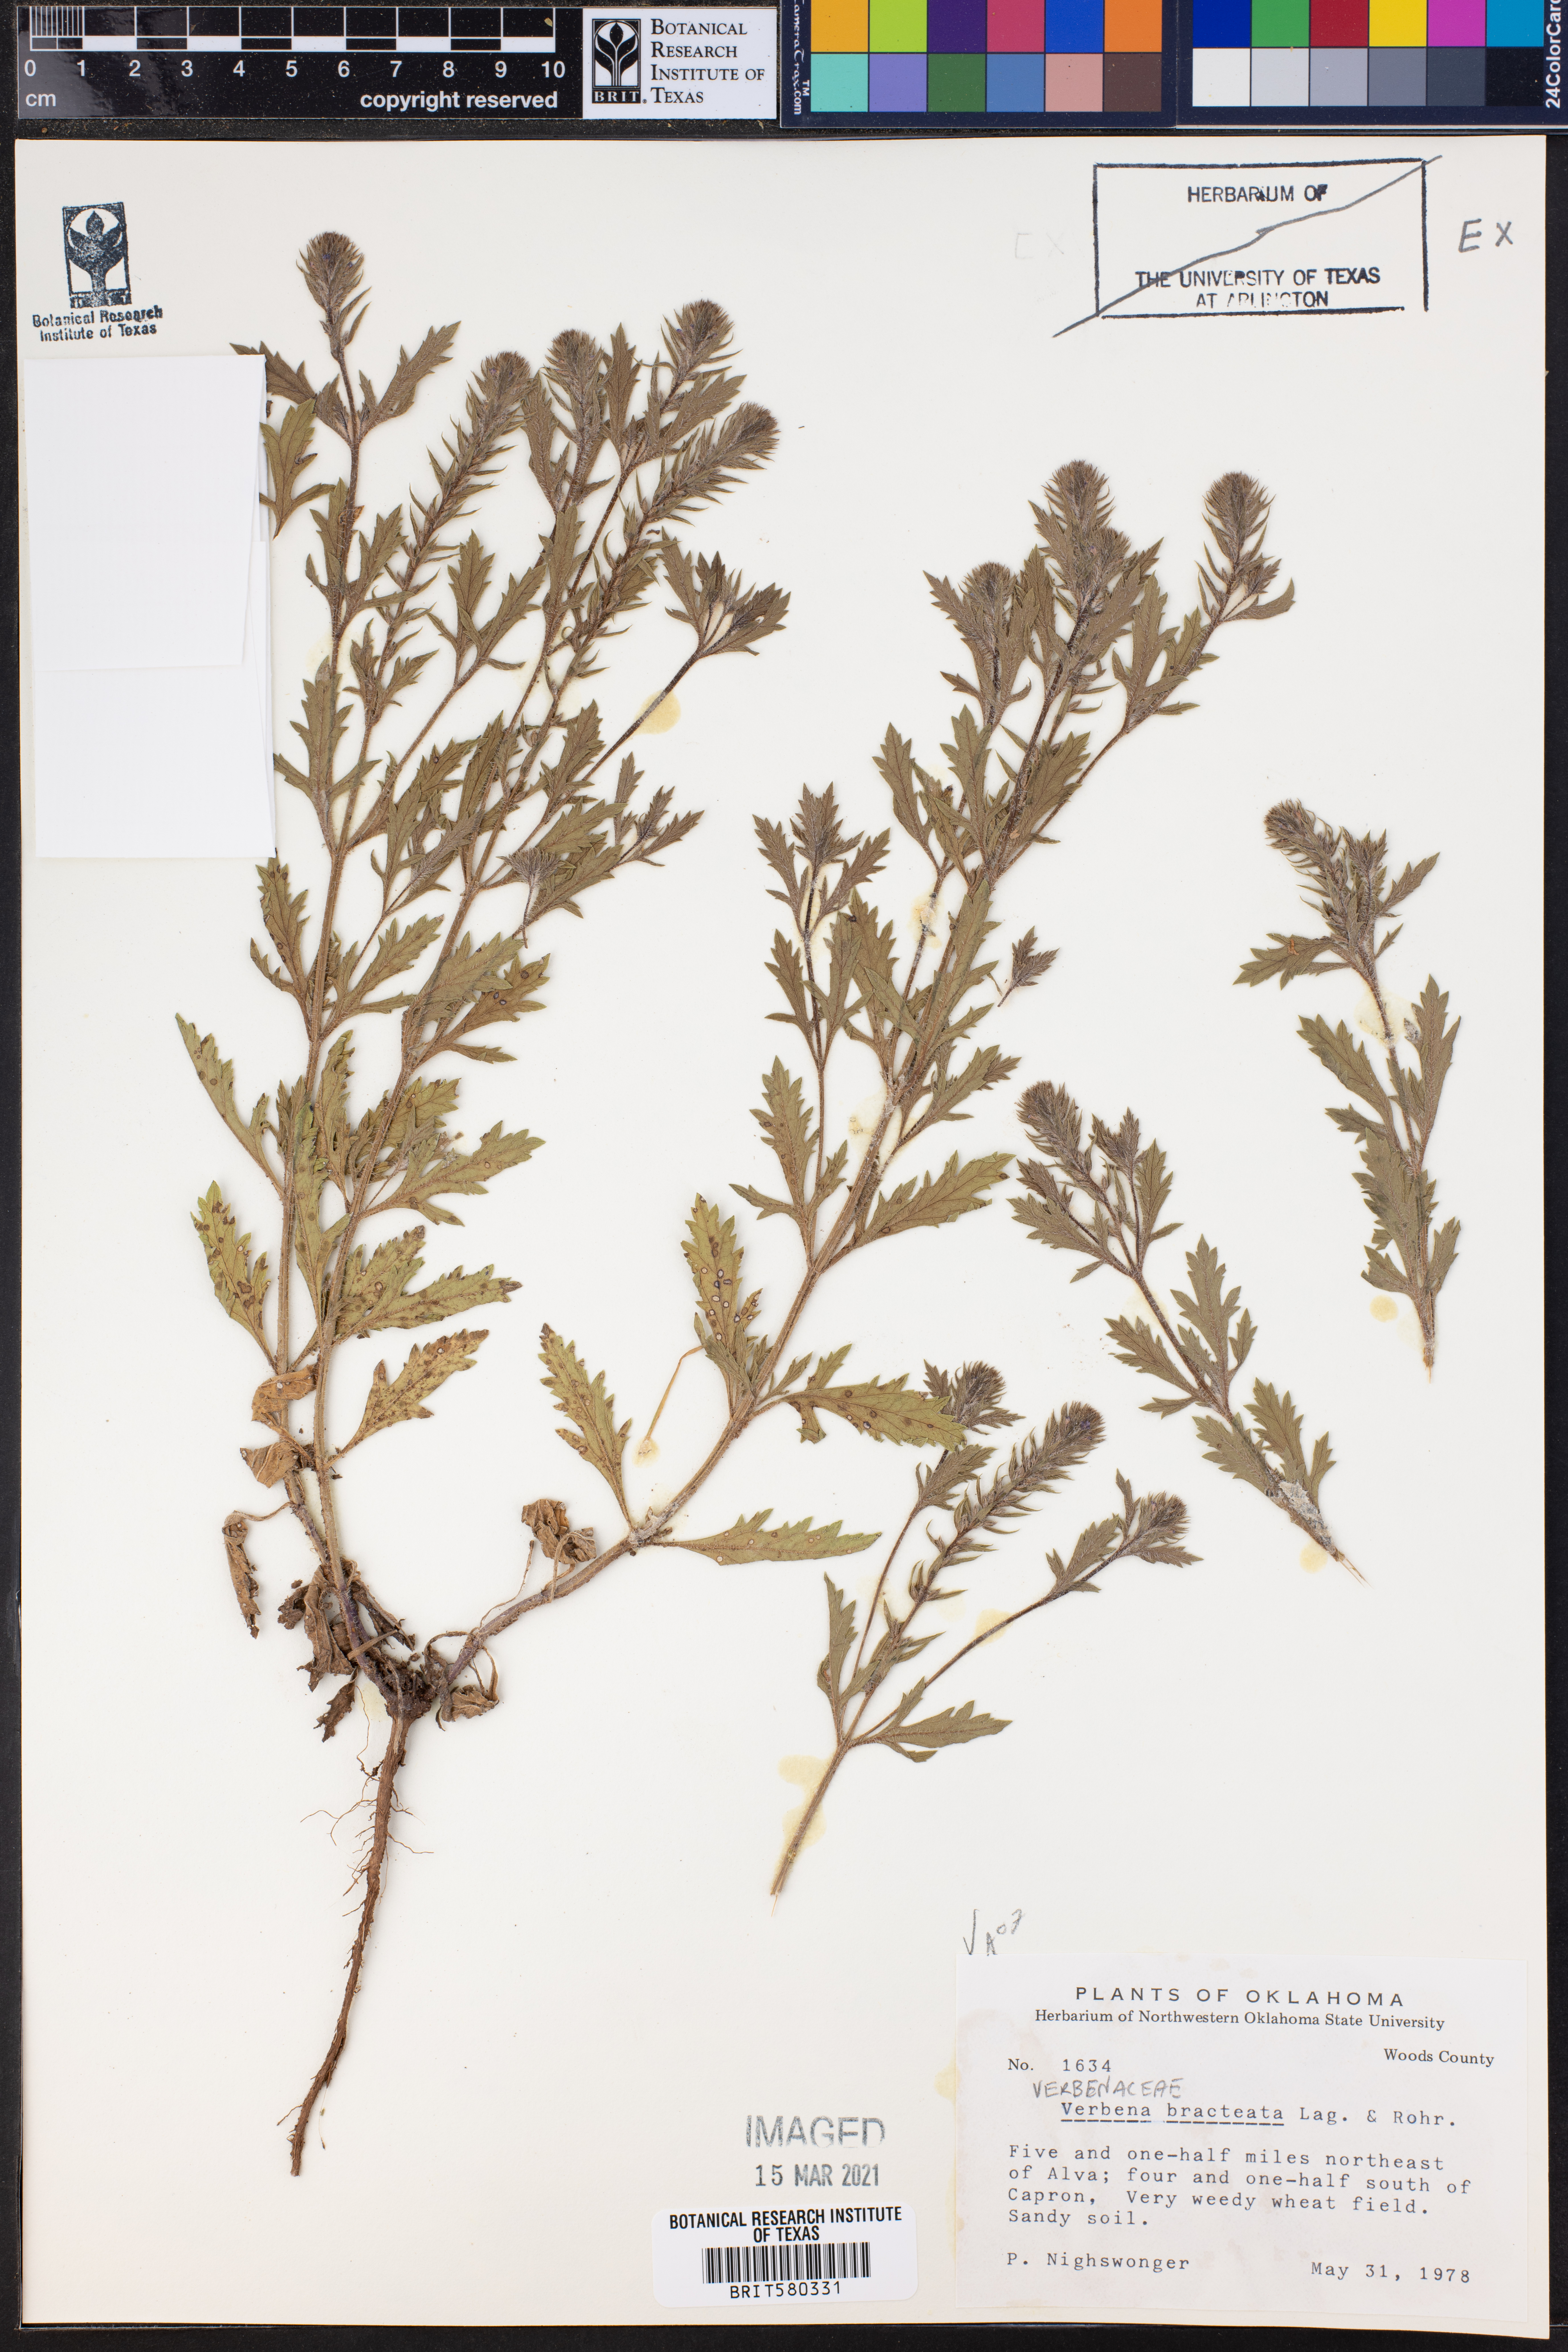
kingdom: Plantae
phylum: Tracheophyta
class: Magnoliopsida
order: Lamiales
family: Verbenaceae
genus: Verbena
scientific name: Verbena bracteata
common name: Bracted vervain
